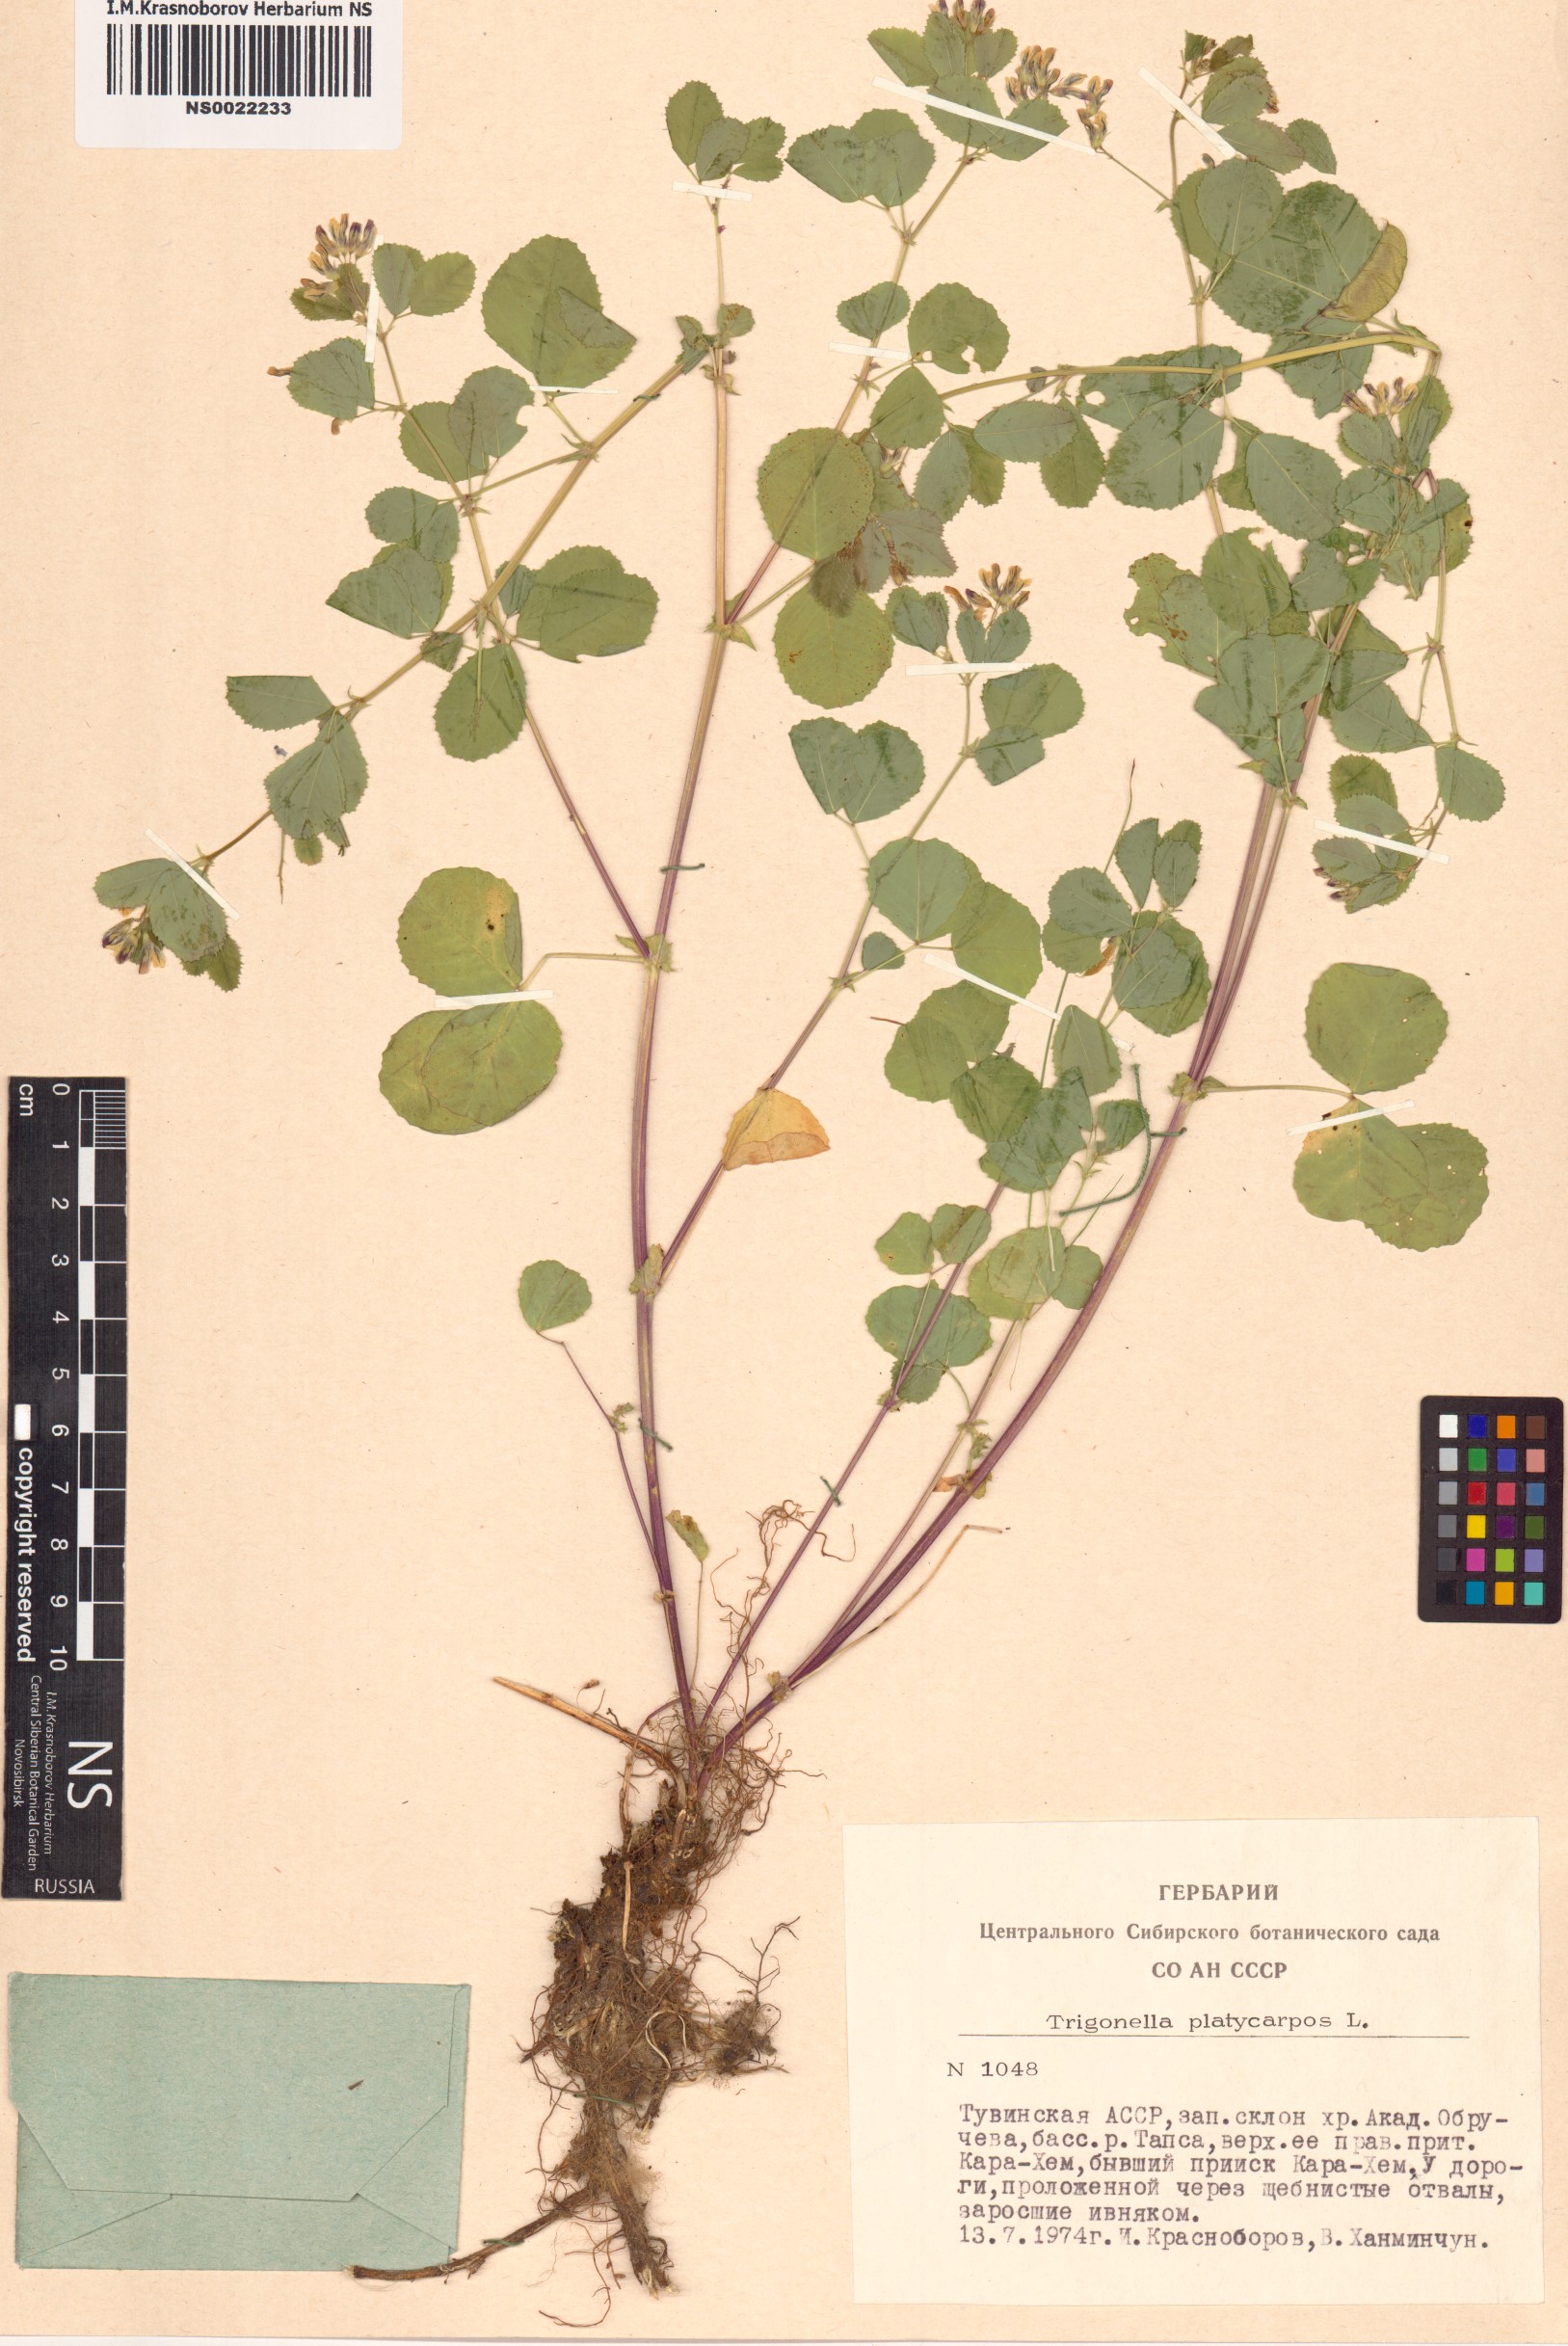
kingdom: Plantae
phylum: Tracheophyta
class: Magnoliopsida
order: Fabales
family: Fabaceae
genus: Medicago
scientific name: Medicago platycarpos
